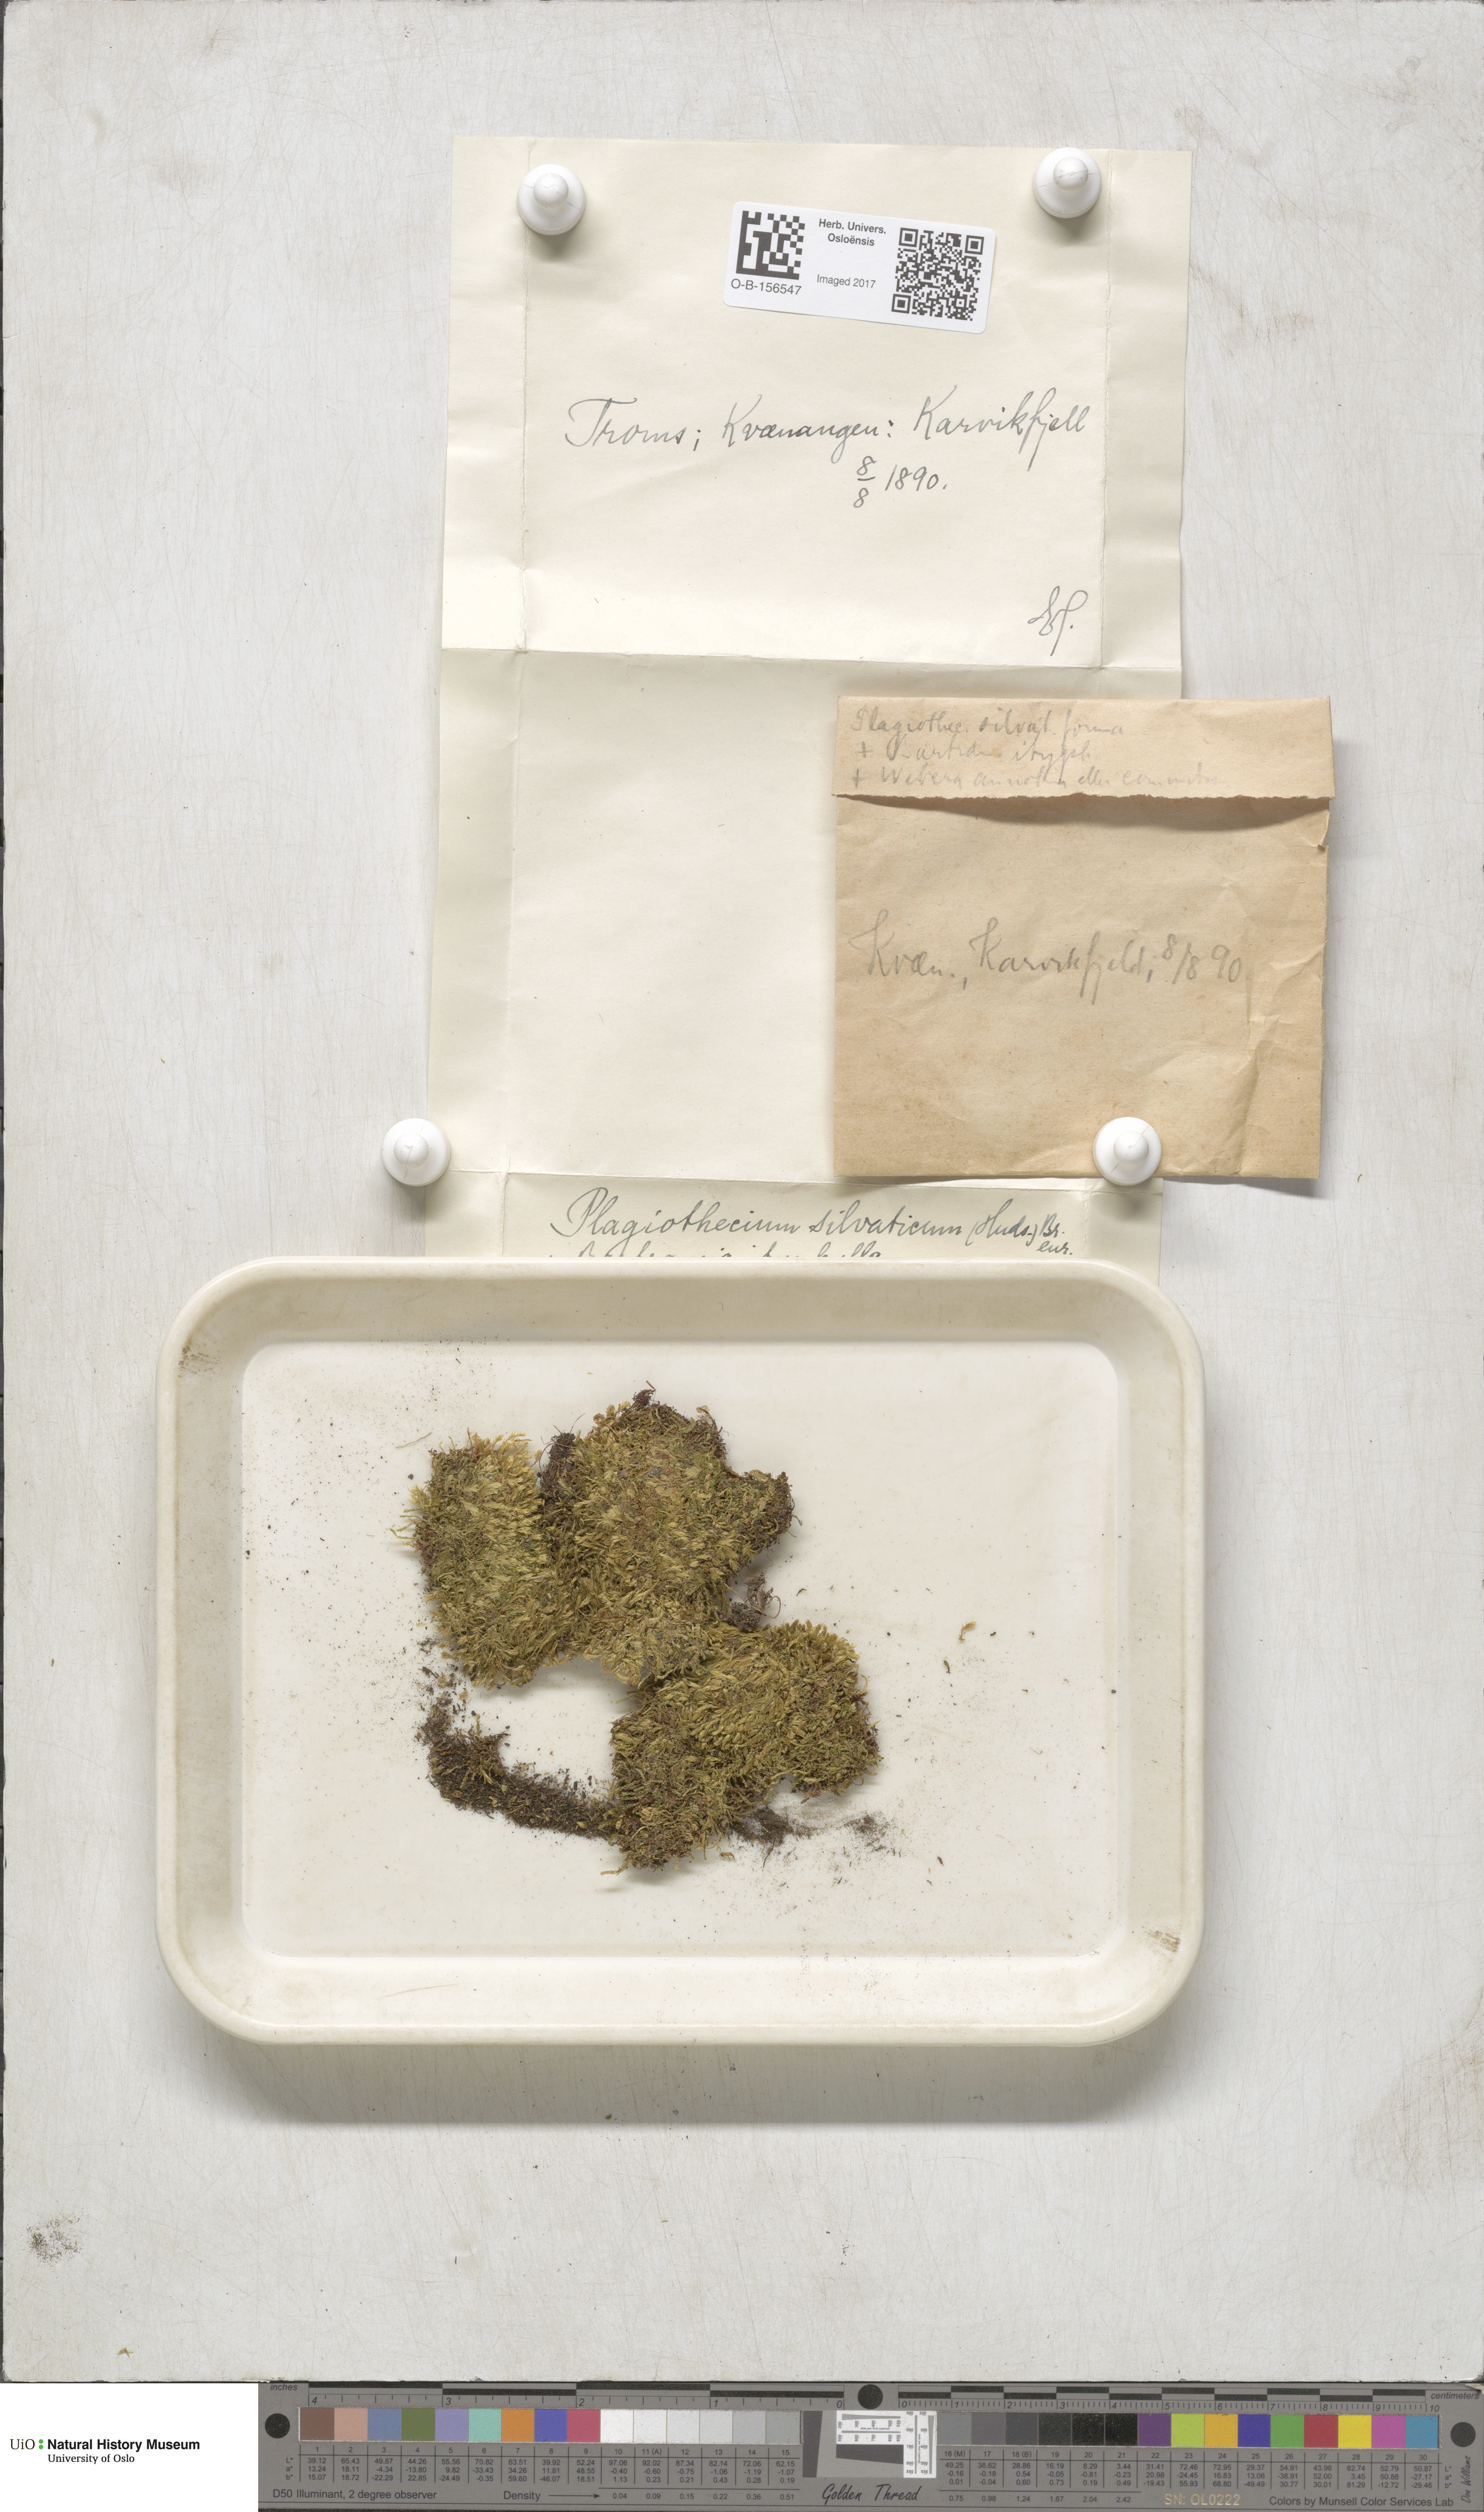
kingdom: Plantae
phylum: Bryophyta
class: Bryopsida
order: Hypnales
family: Plagiotheciaceae
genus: Plagiothecium
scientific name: Plagiothecium nemorale
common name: Woodsy silk-moss
